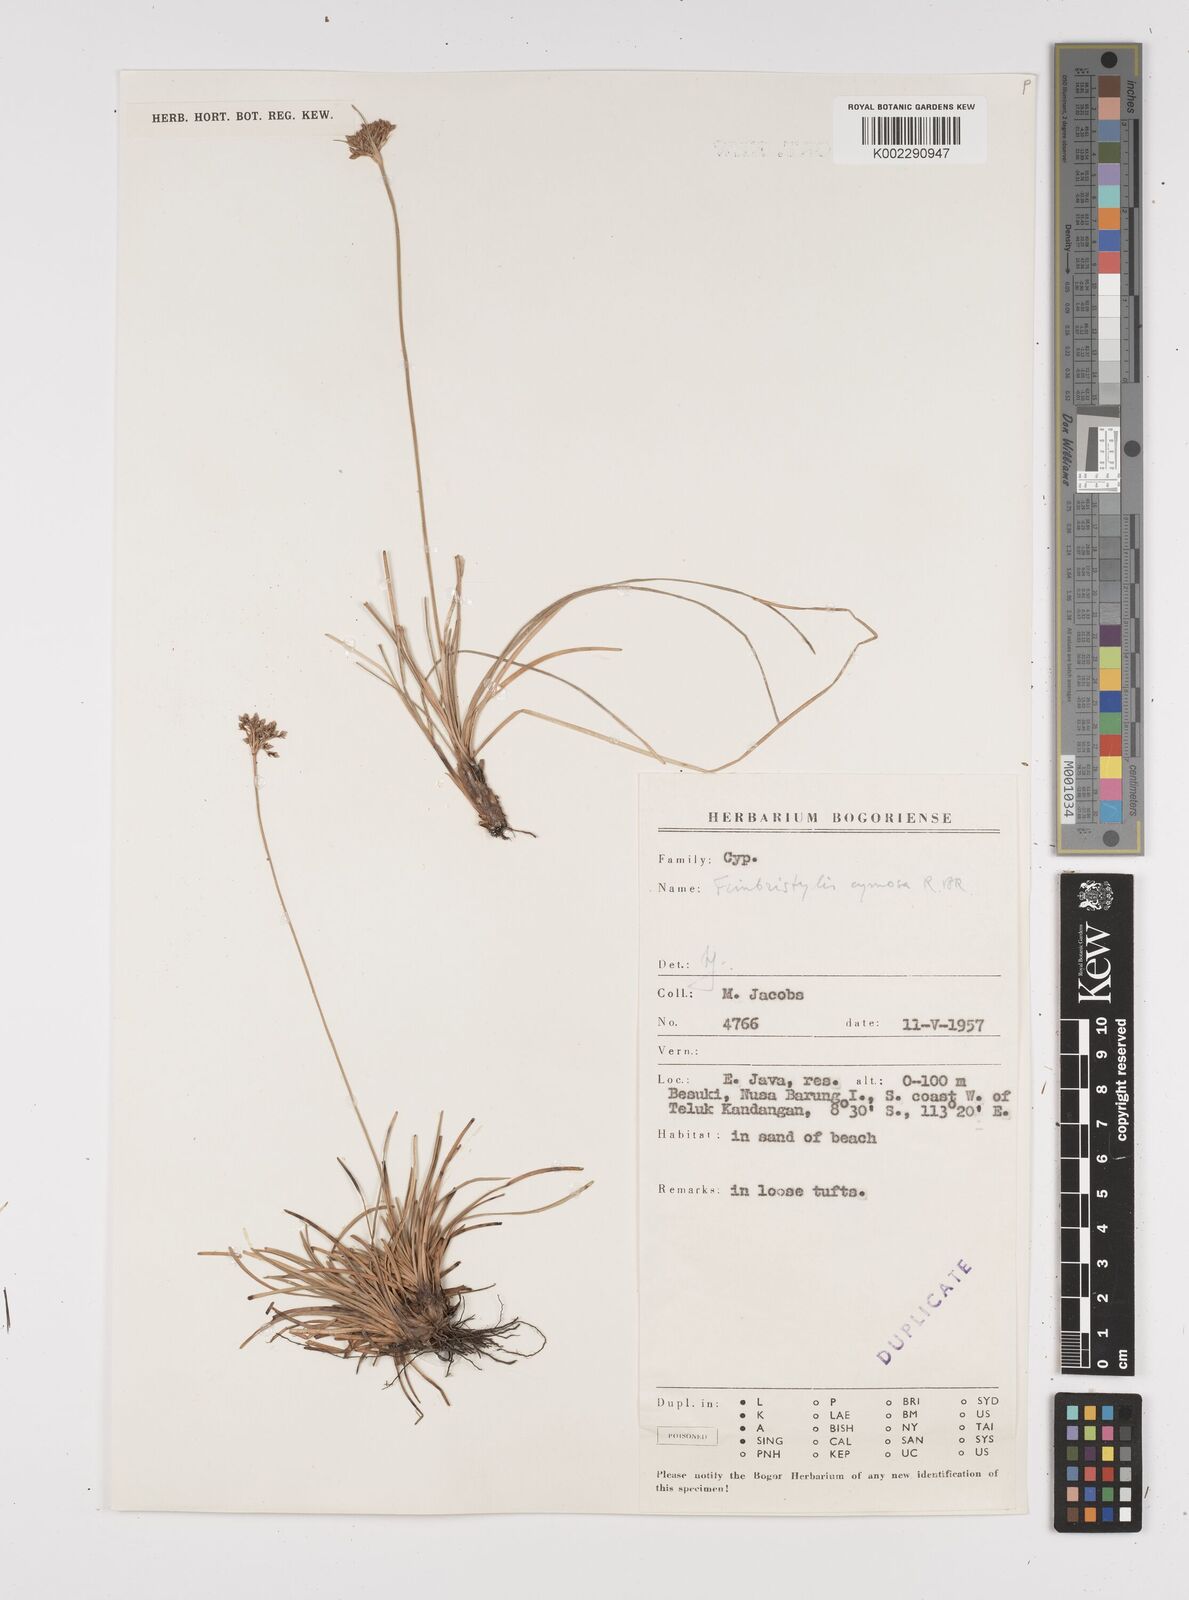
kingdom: Plantae
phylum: Tracheophyta
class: Liliopsida
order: Poales
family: Cyperaceae
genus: Fimbristylis
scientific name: Fimbristylis cymosa
